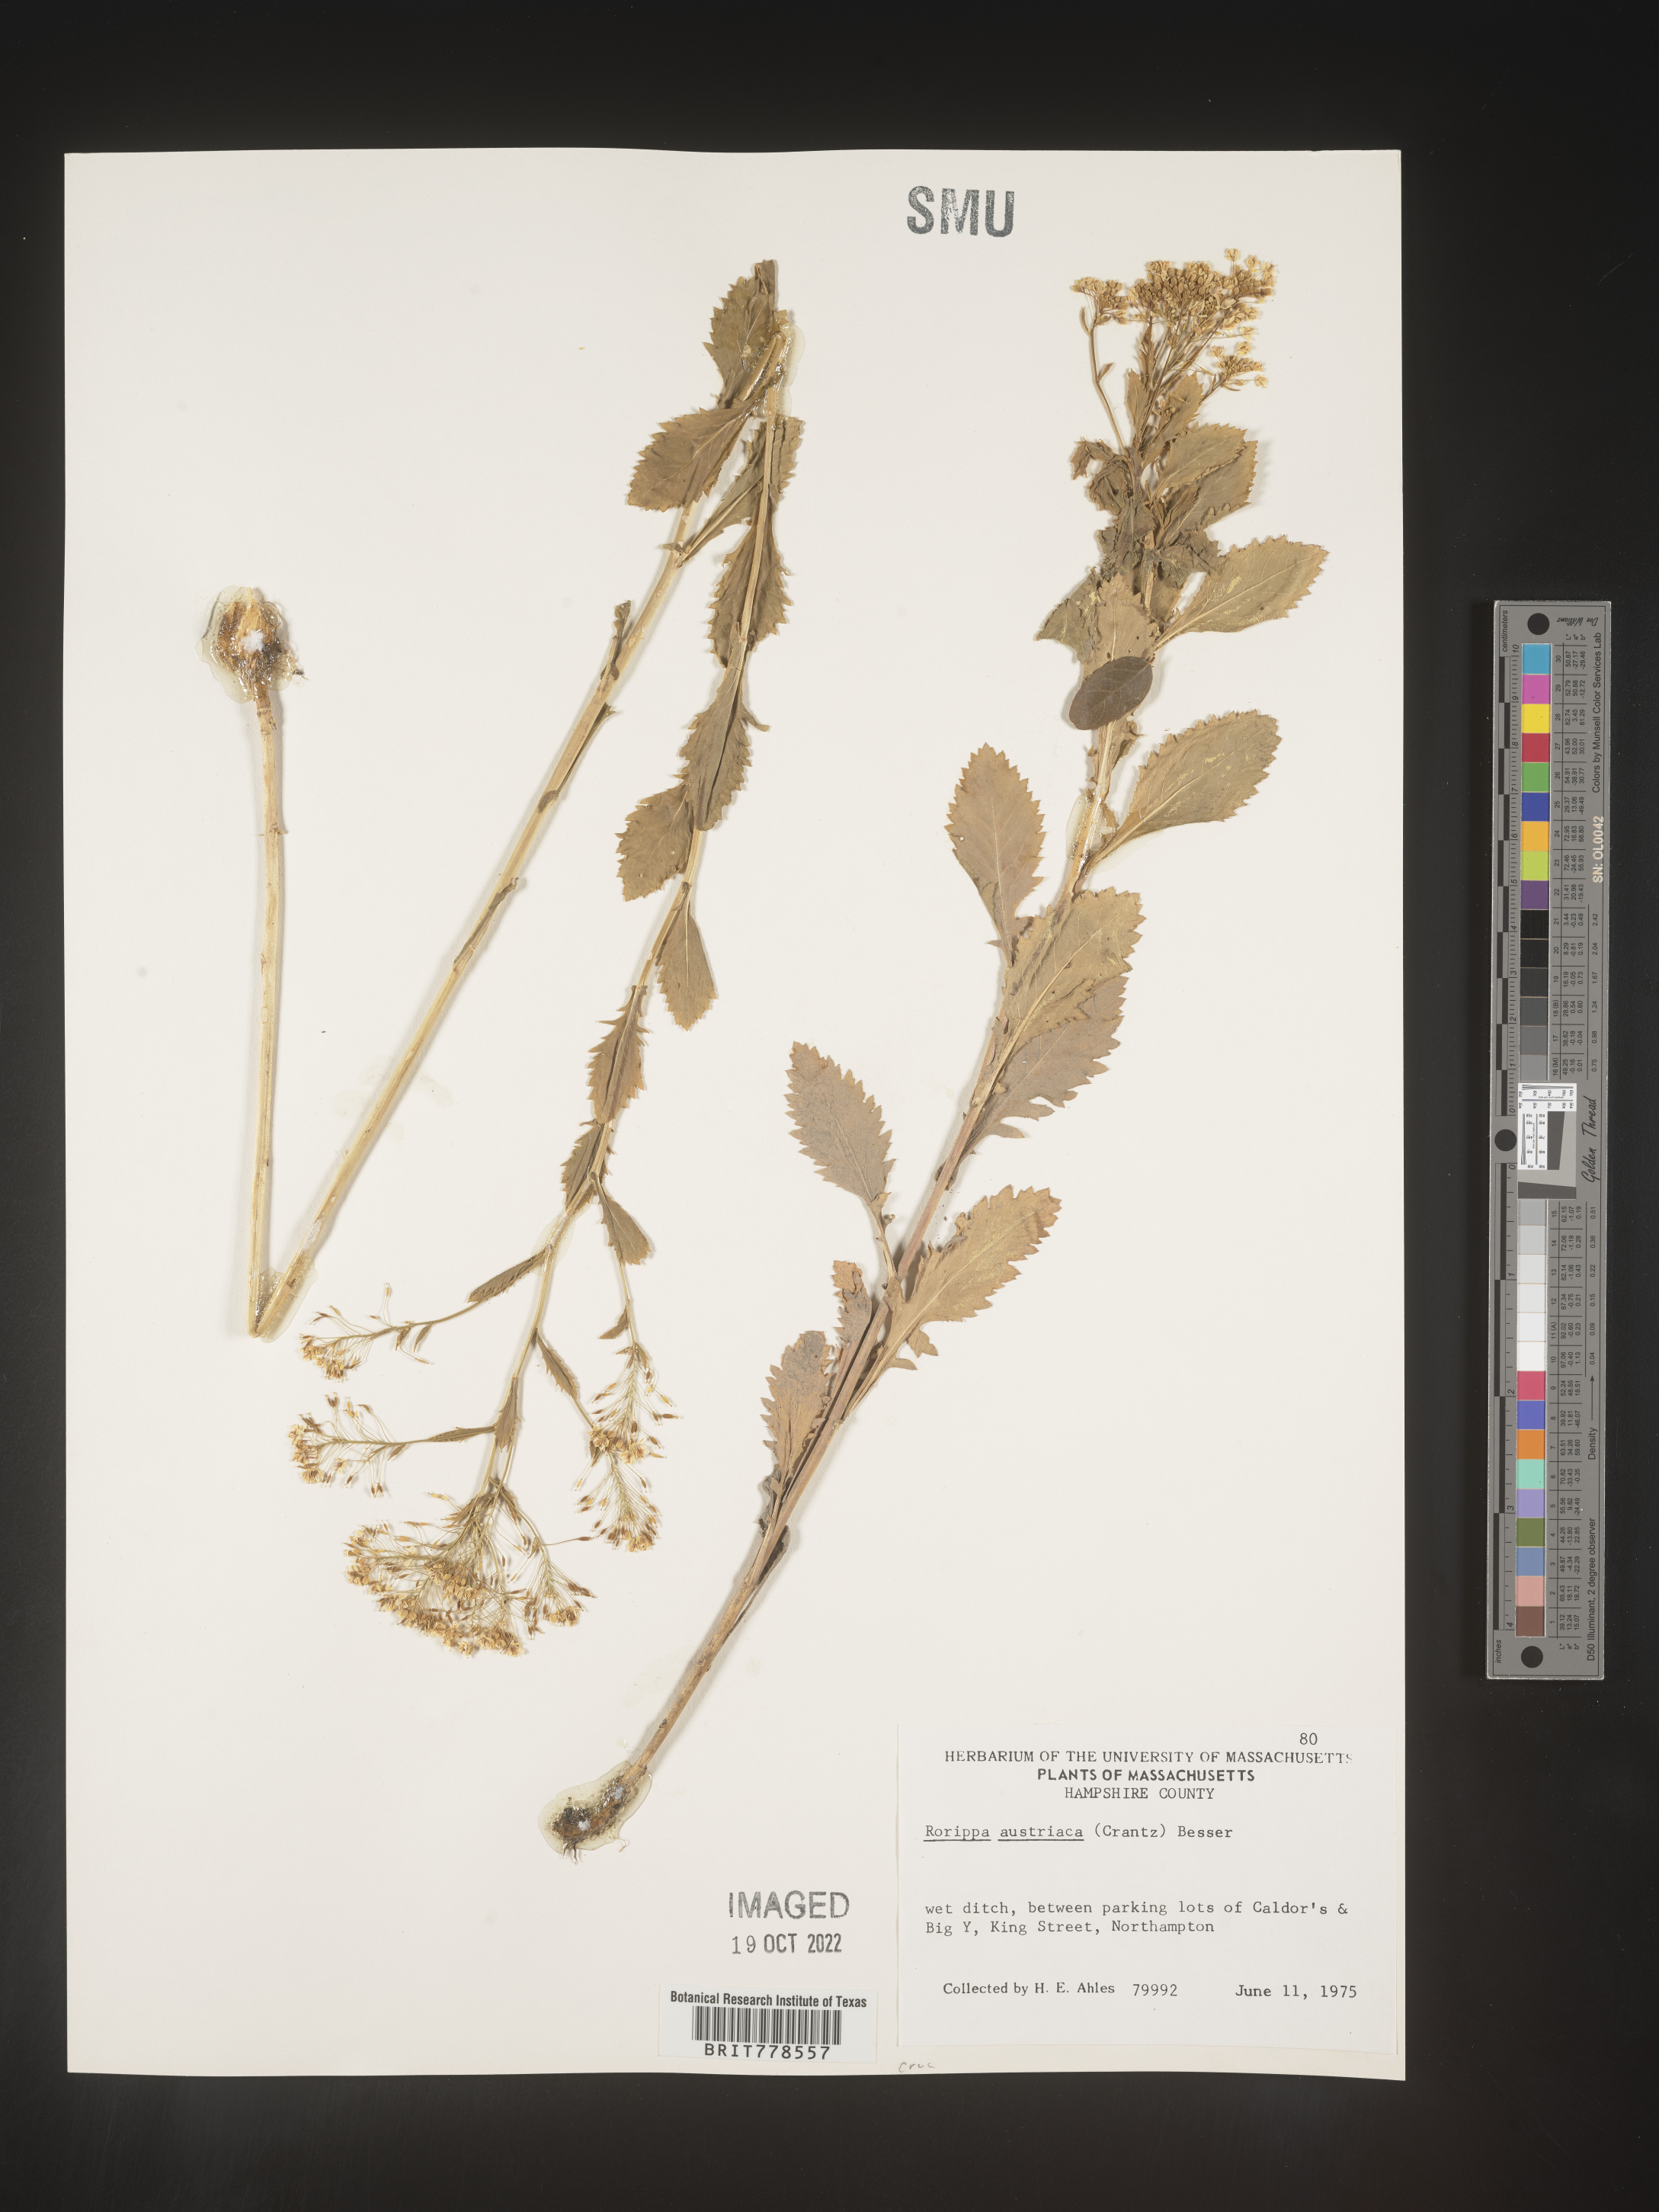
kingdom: Plantae
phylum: Tracheophyta
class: Magnoliopsida
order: Brassicales
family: Brassicaceae
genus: Rorippa
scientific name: Rorippa
